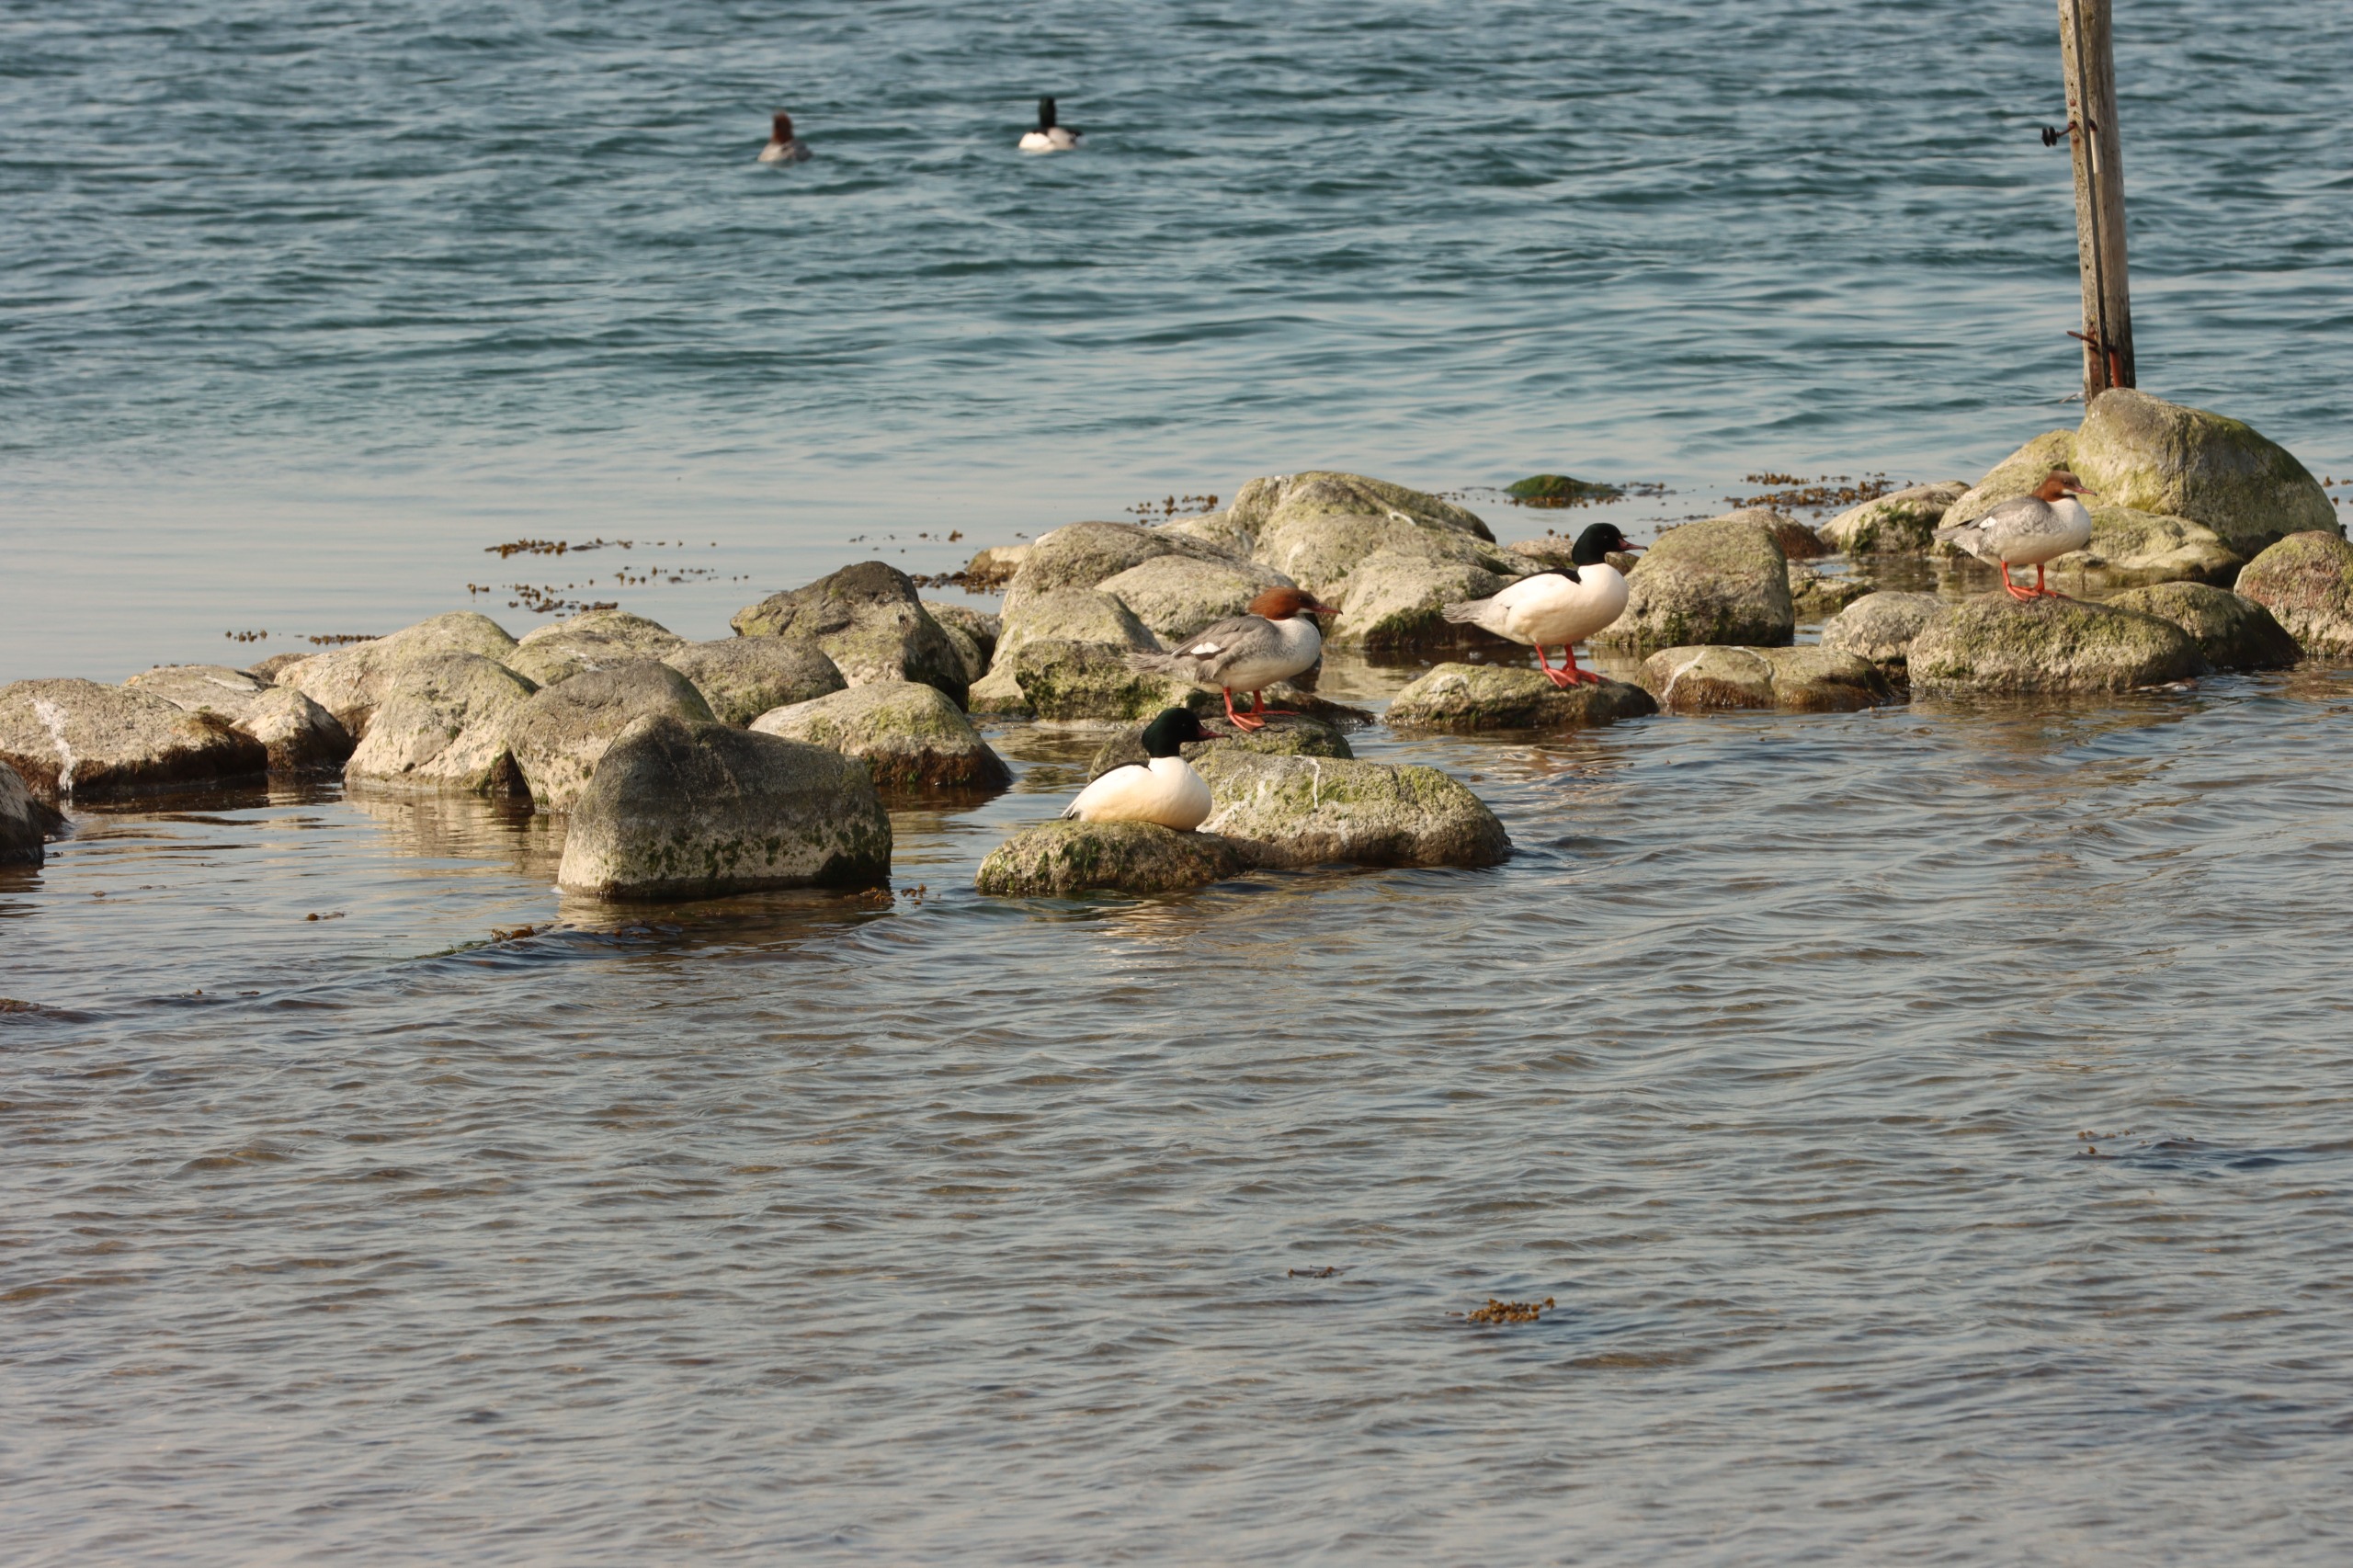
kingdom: Animalia
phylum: Chordata
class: Aves
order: Anseriformes
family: Anatidae
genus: Mergus
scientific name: Mergus merganser
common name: Stor skallesluger
